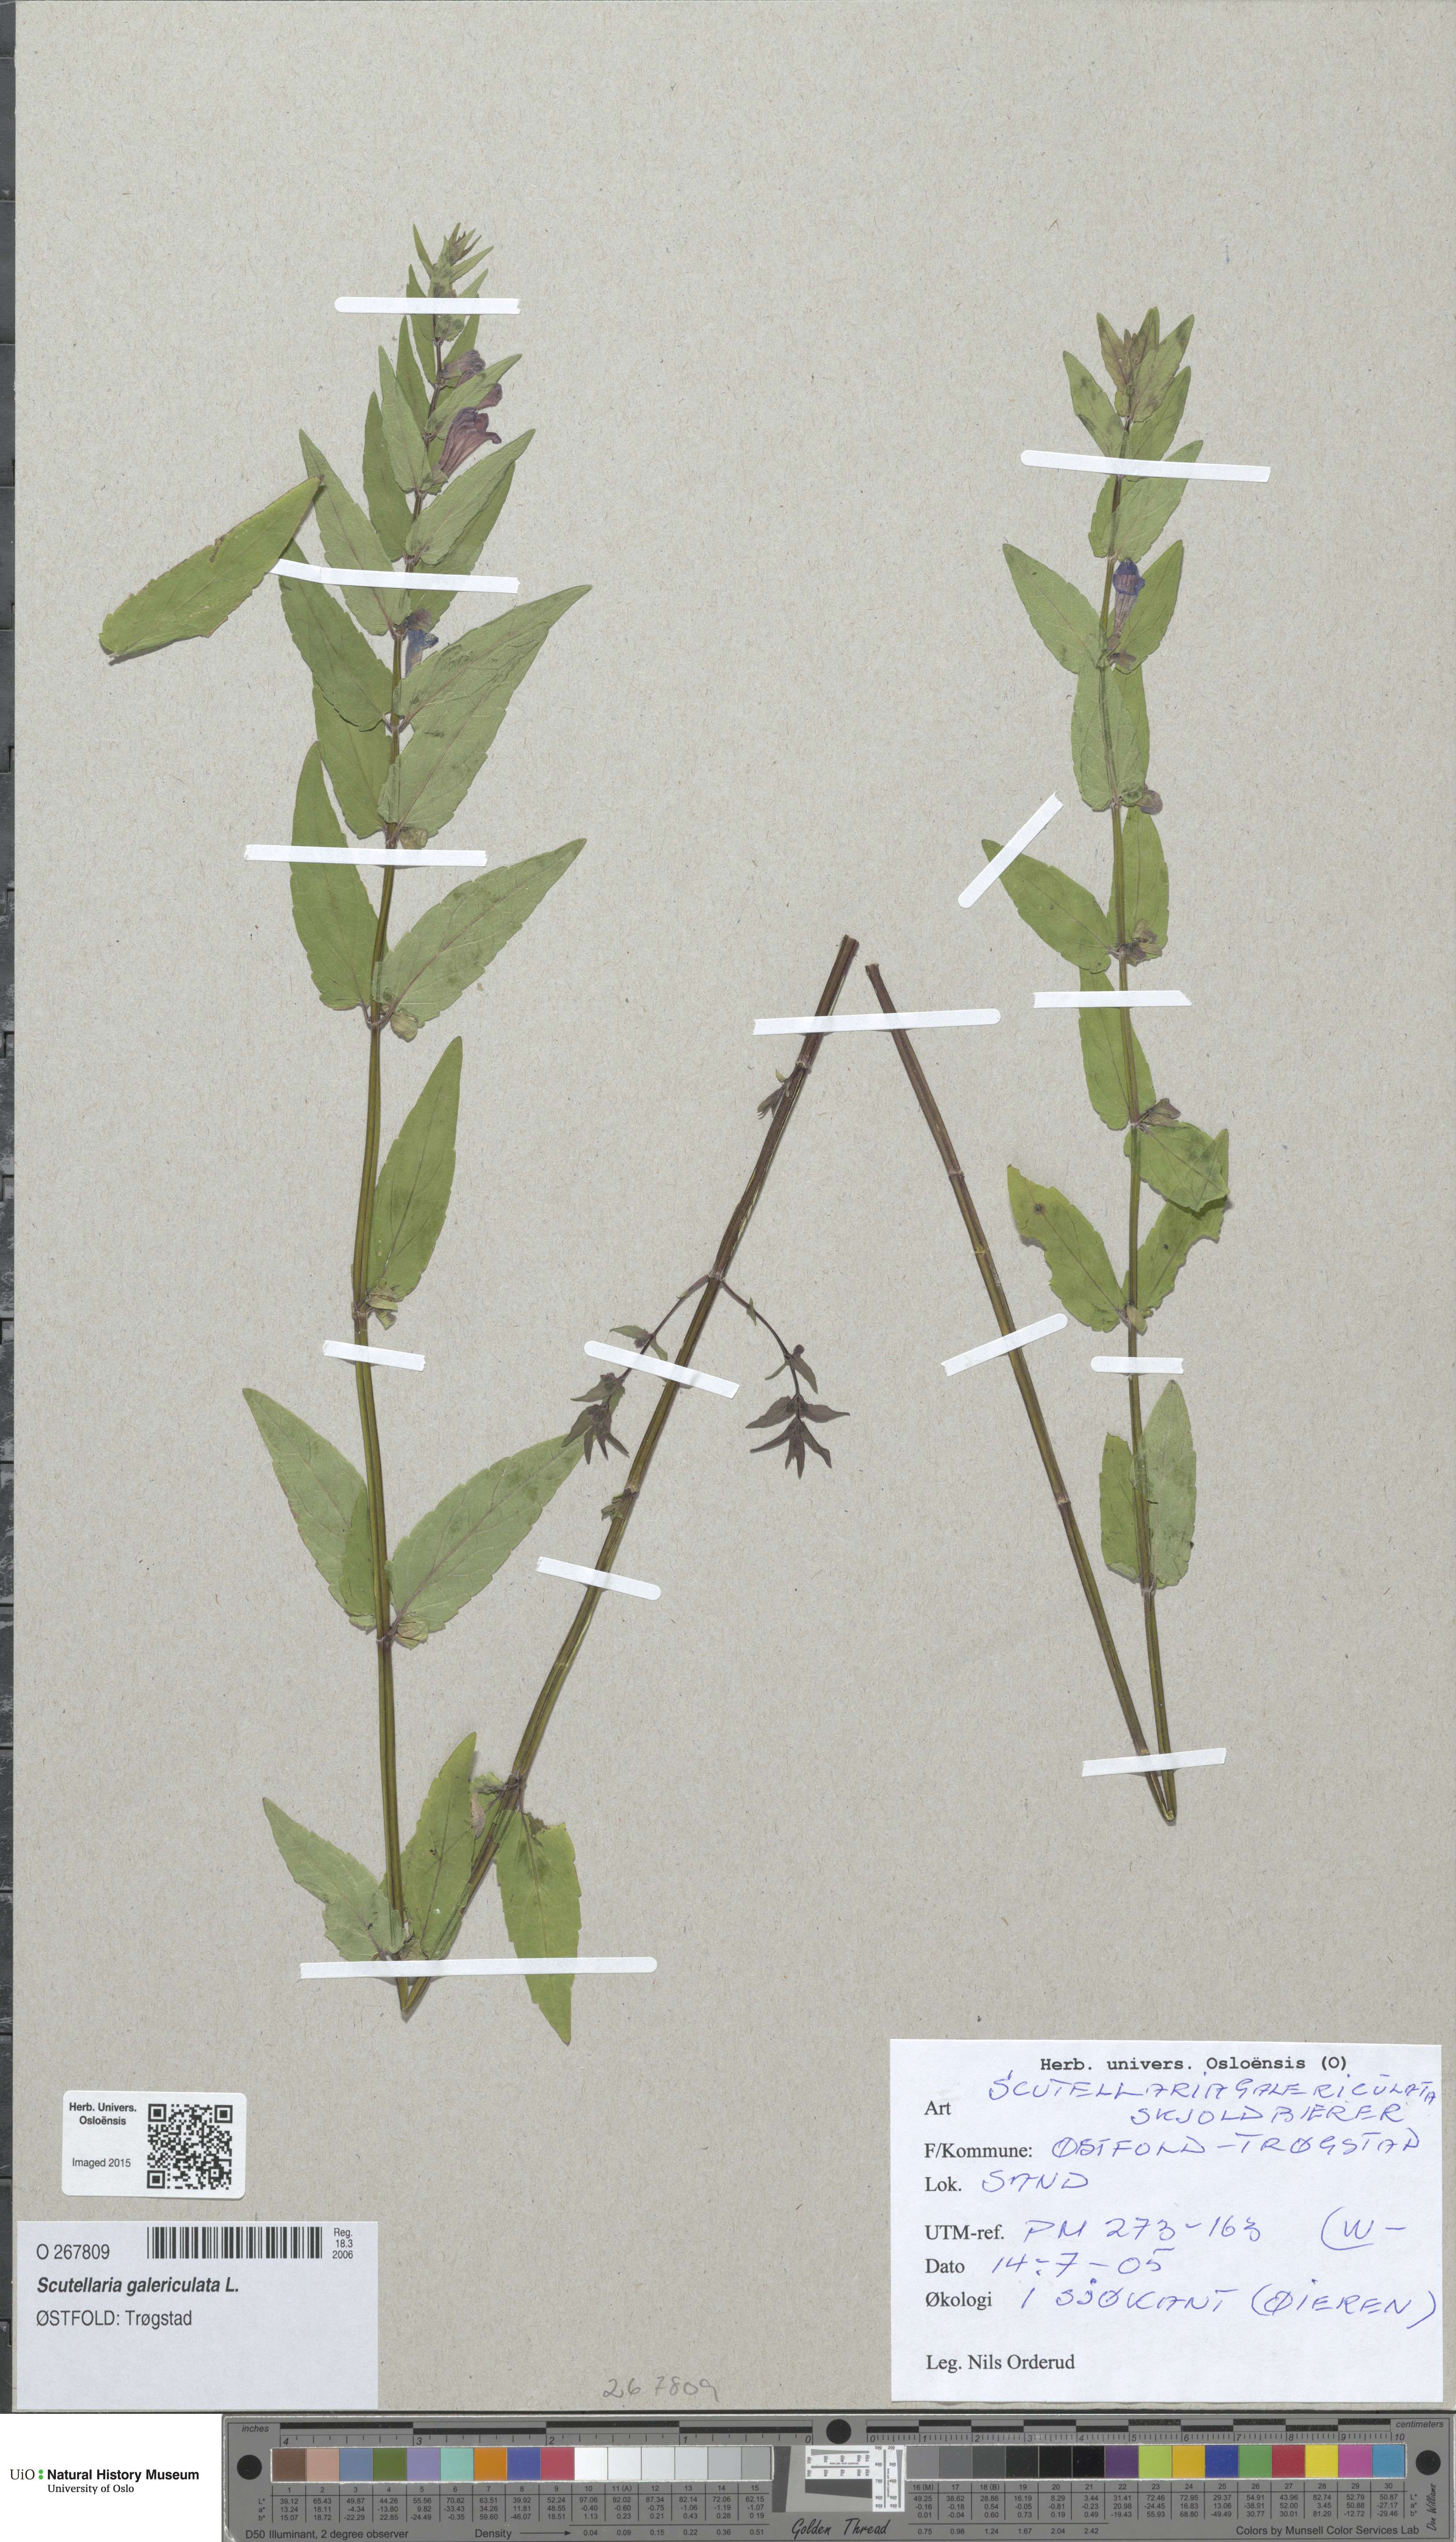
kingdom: Plantae
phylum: Tracheophyta
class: Magnoliopsida
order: Lamiales
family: Lamiaceae
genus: Scutellaria
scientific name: Scutellaria galericulata
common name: Skullcap
